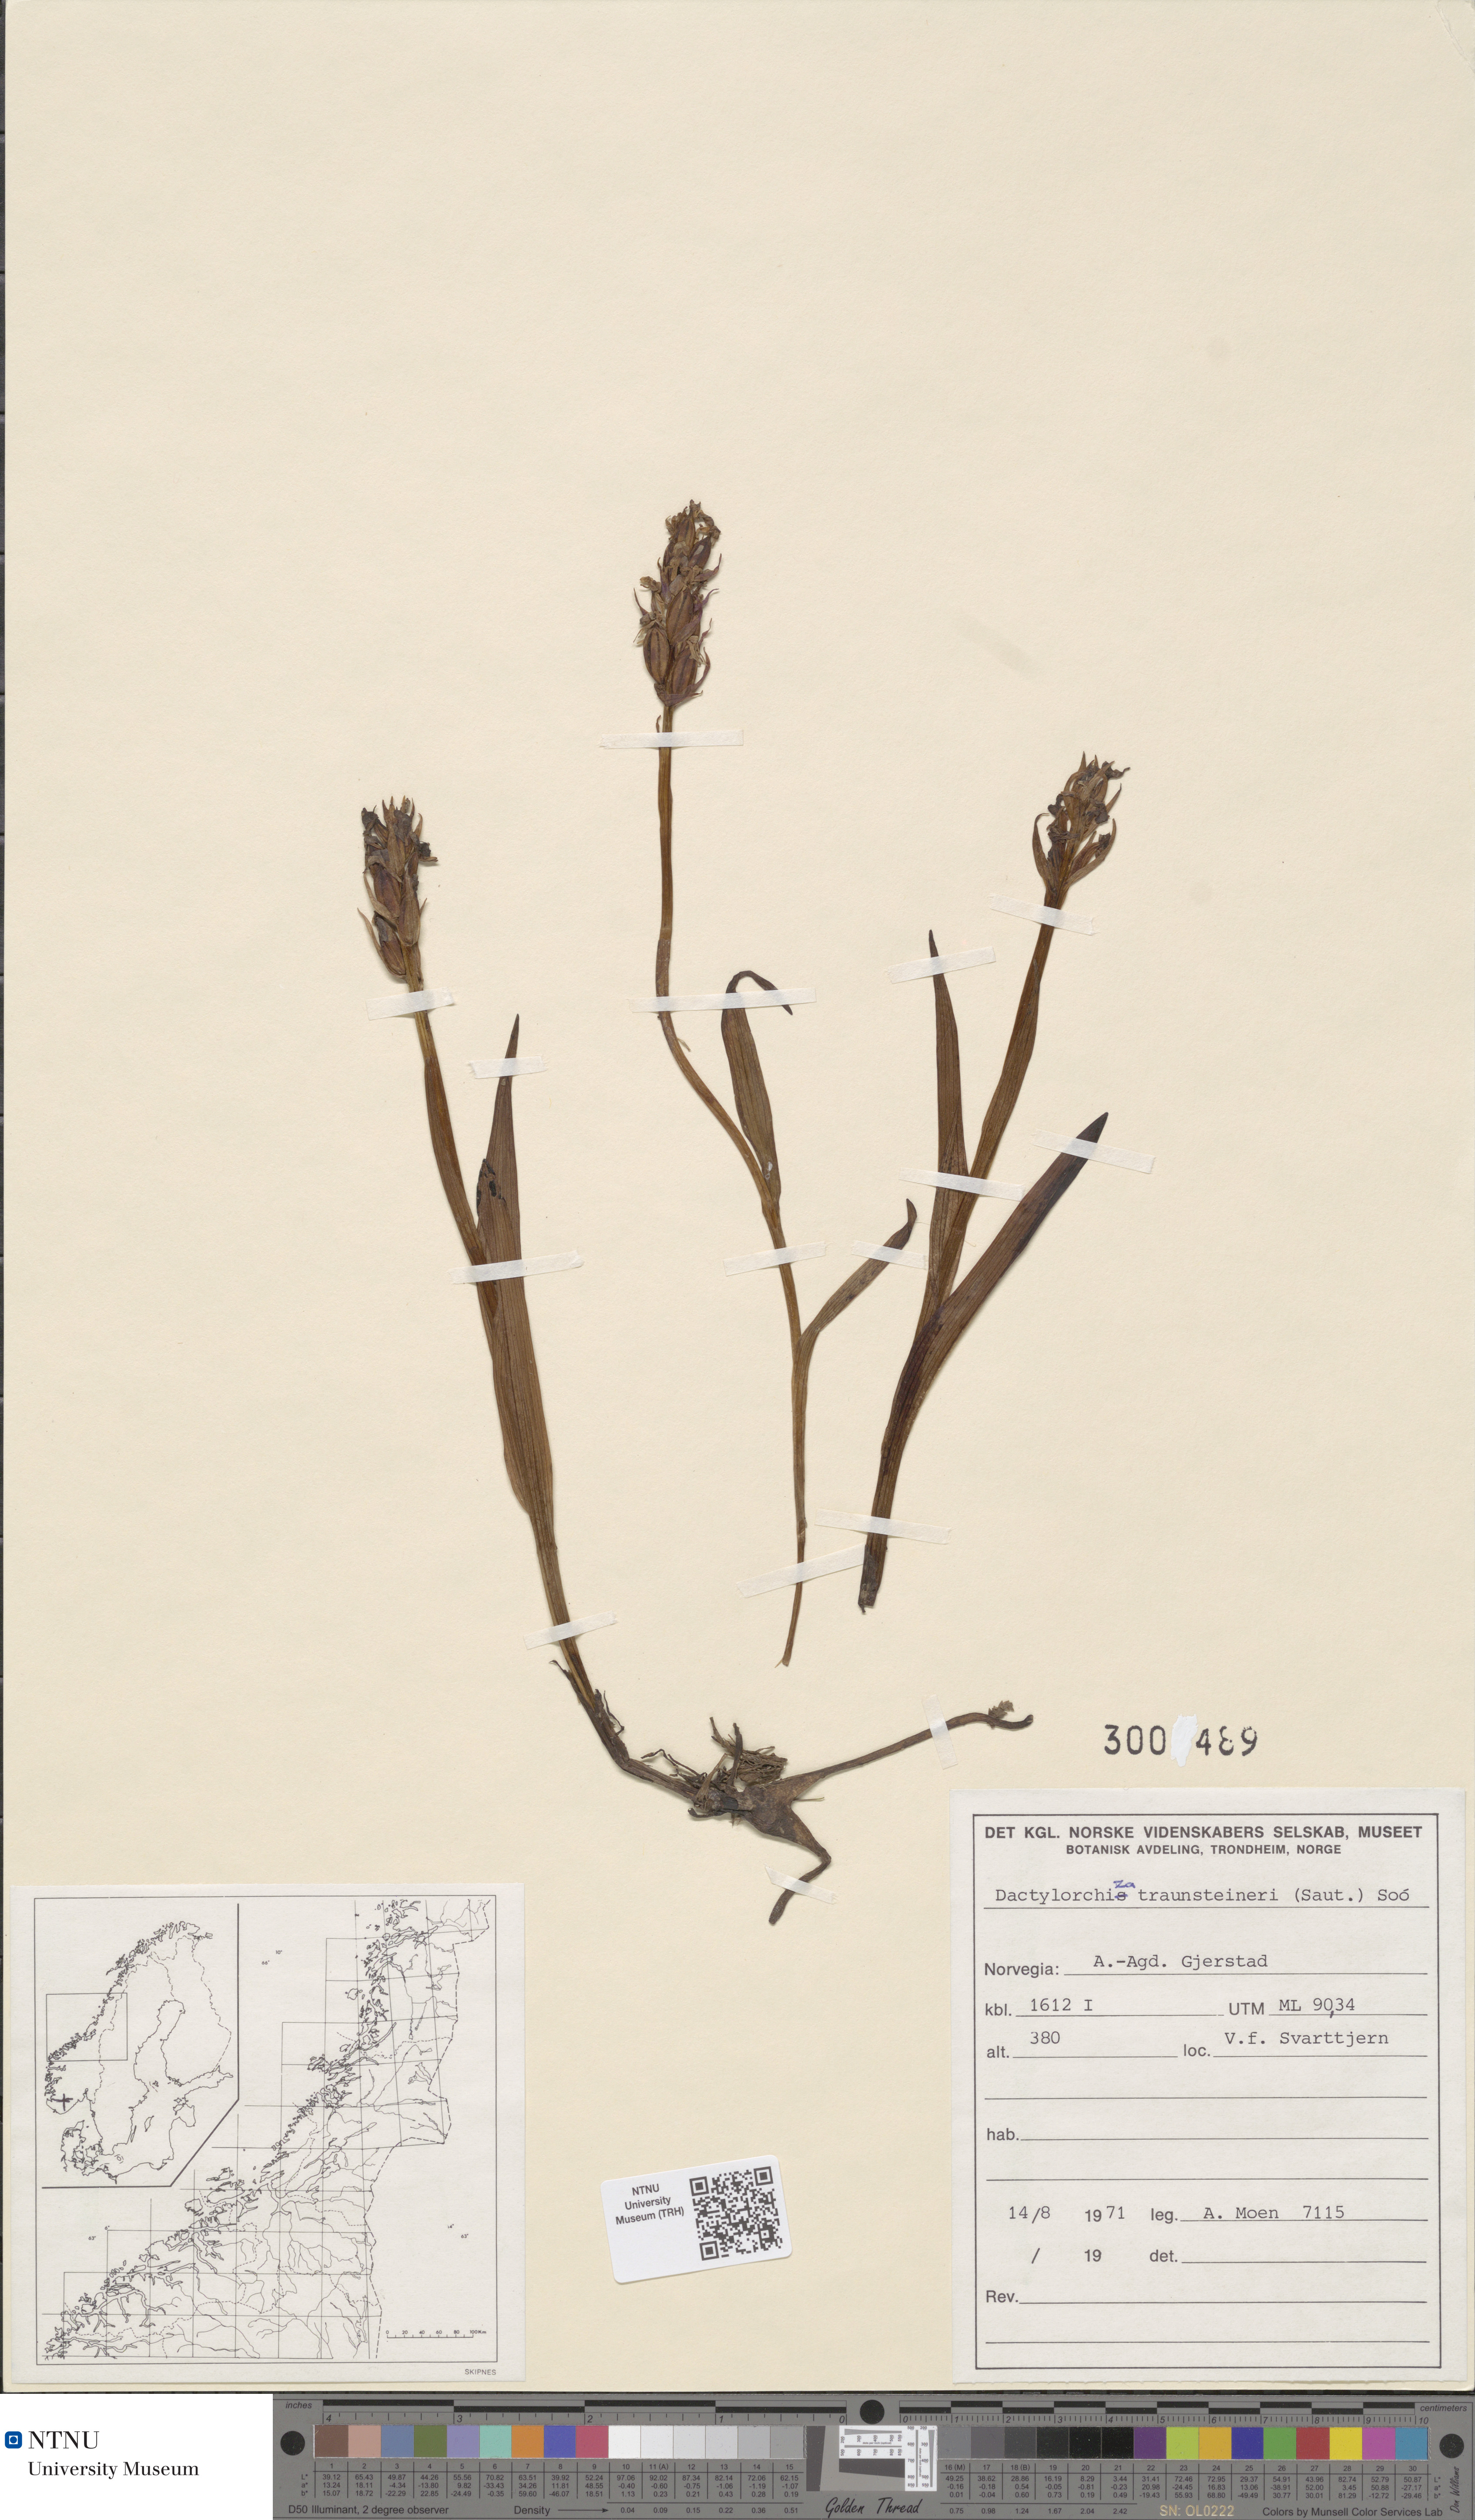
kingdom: Plantae
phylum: Tracheophyta
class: Liliopsida
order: Asparagales
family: Orchidaceae
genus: Dactylorhiza
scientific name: Dactylorhiza majalis
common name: Marsh orchid
